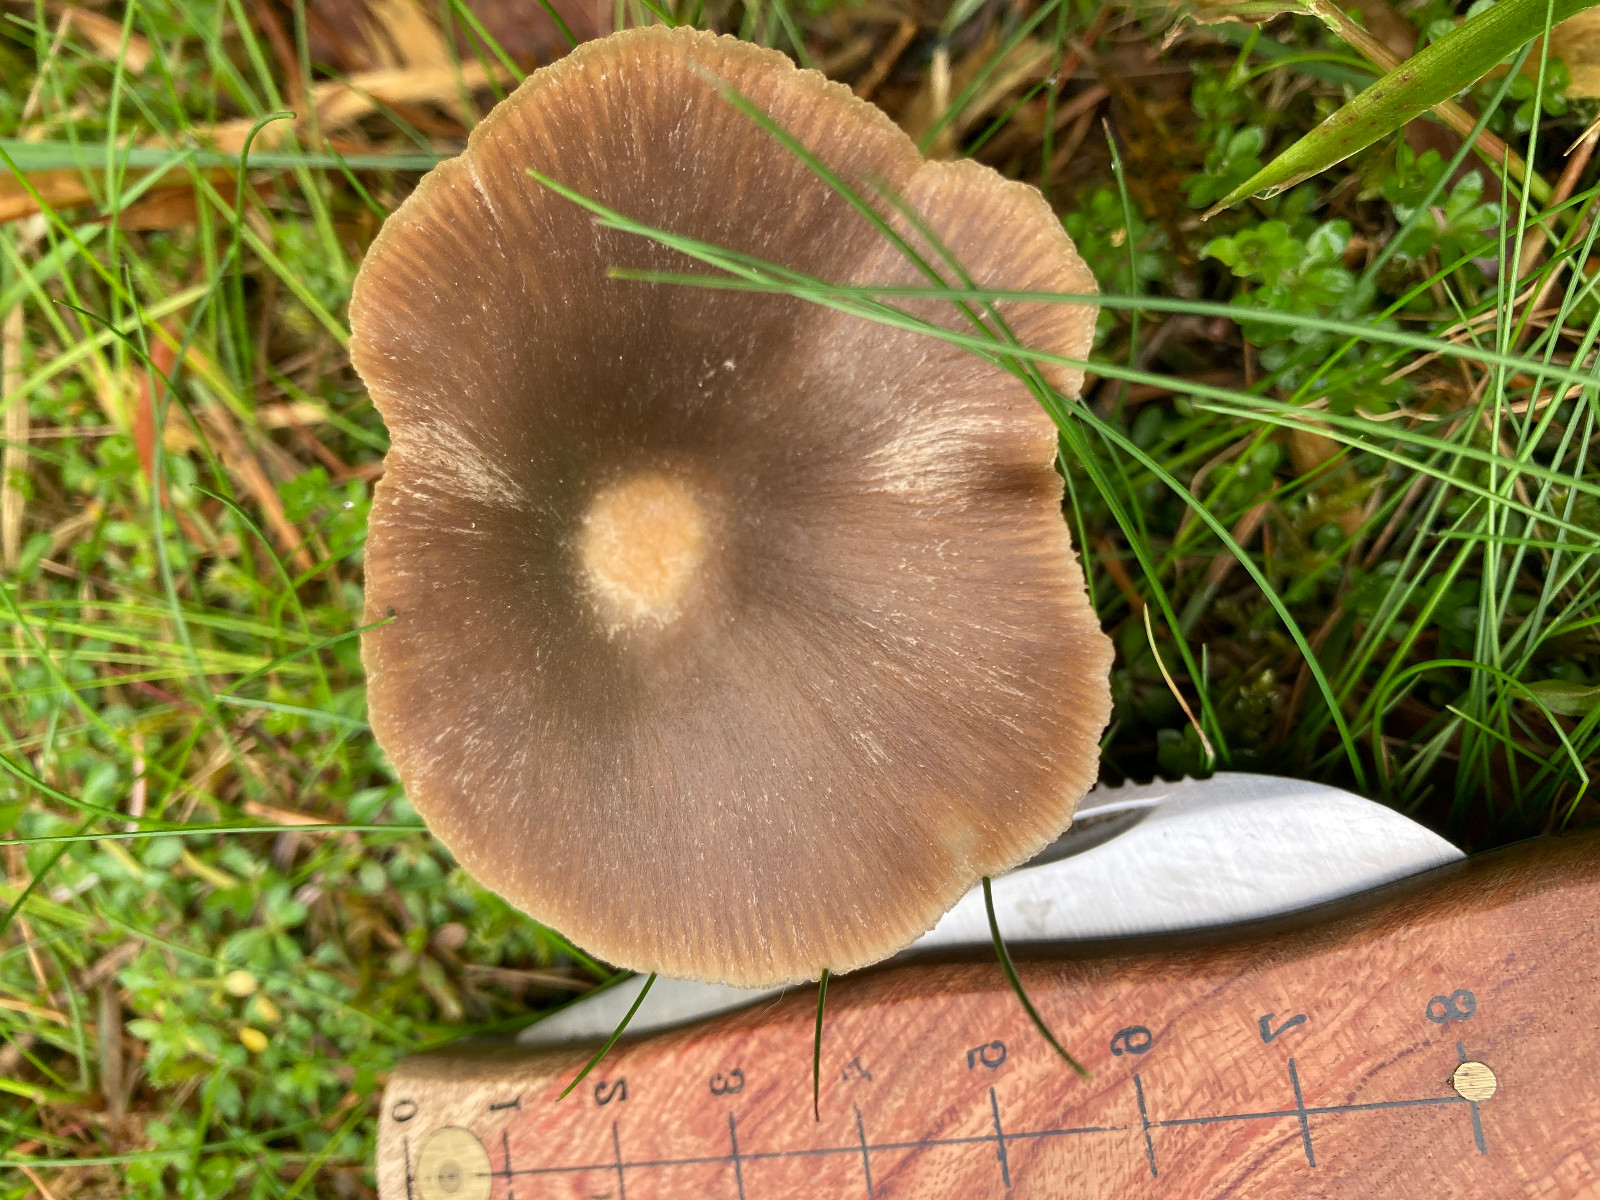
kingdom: Fungi
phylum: Basidiomycota
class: Agaricomycetes
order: Agaricales
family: Entolomataceae
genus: Entoloma
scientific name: Entoloma
